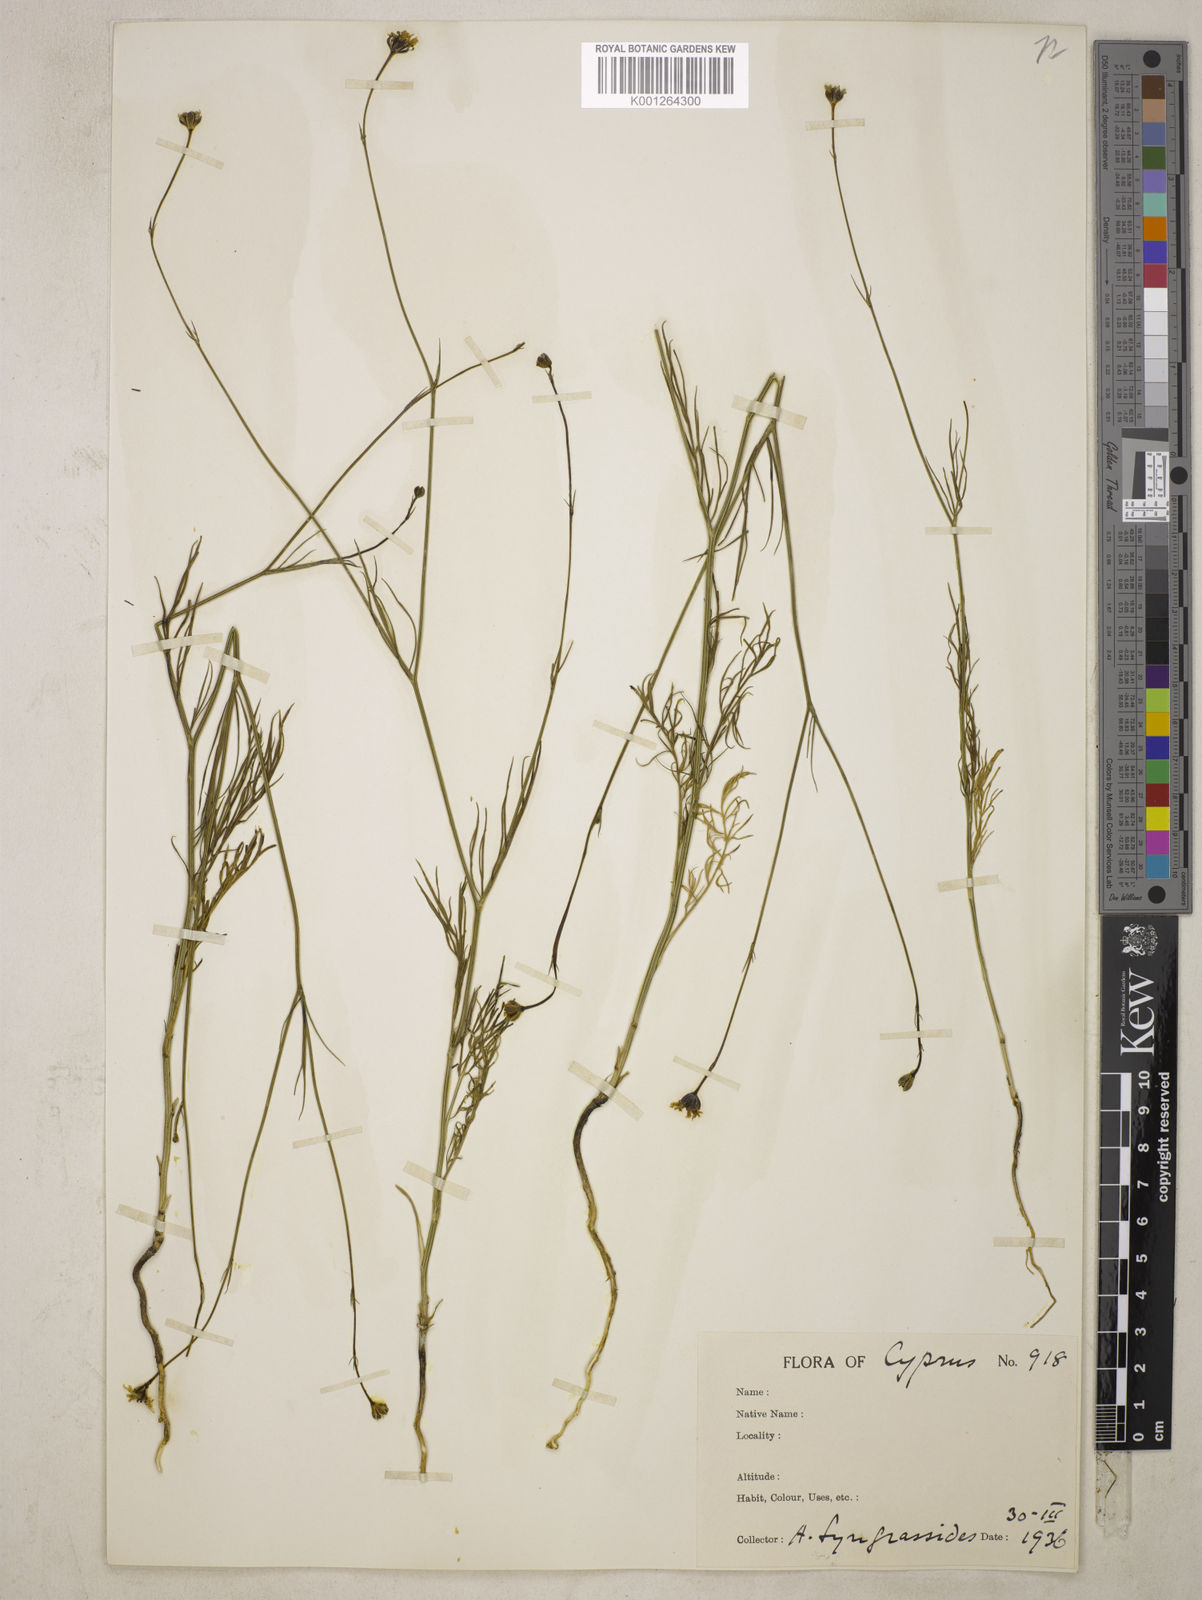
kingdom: Plantae
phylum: Tracheophyta
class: Magnoliopsida
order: Ranunculales
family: Ranunculaceae
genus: Garidella
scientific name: Garidella nigellastrum
